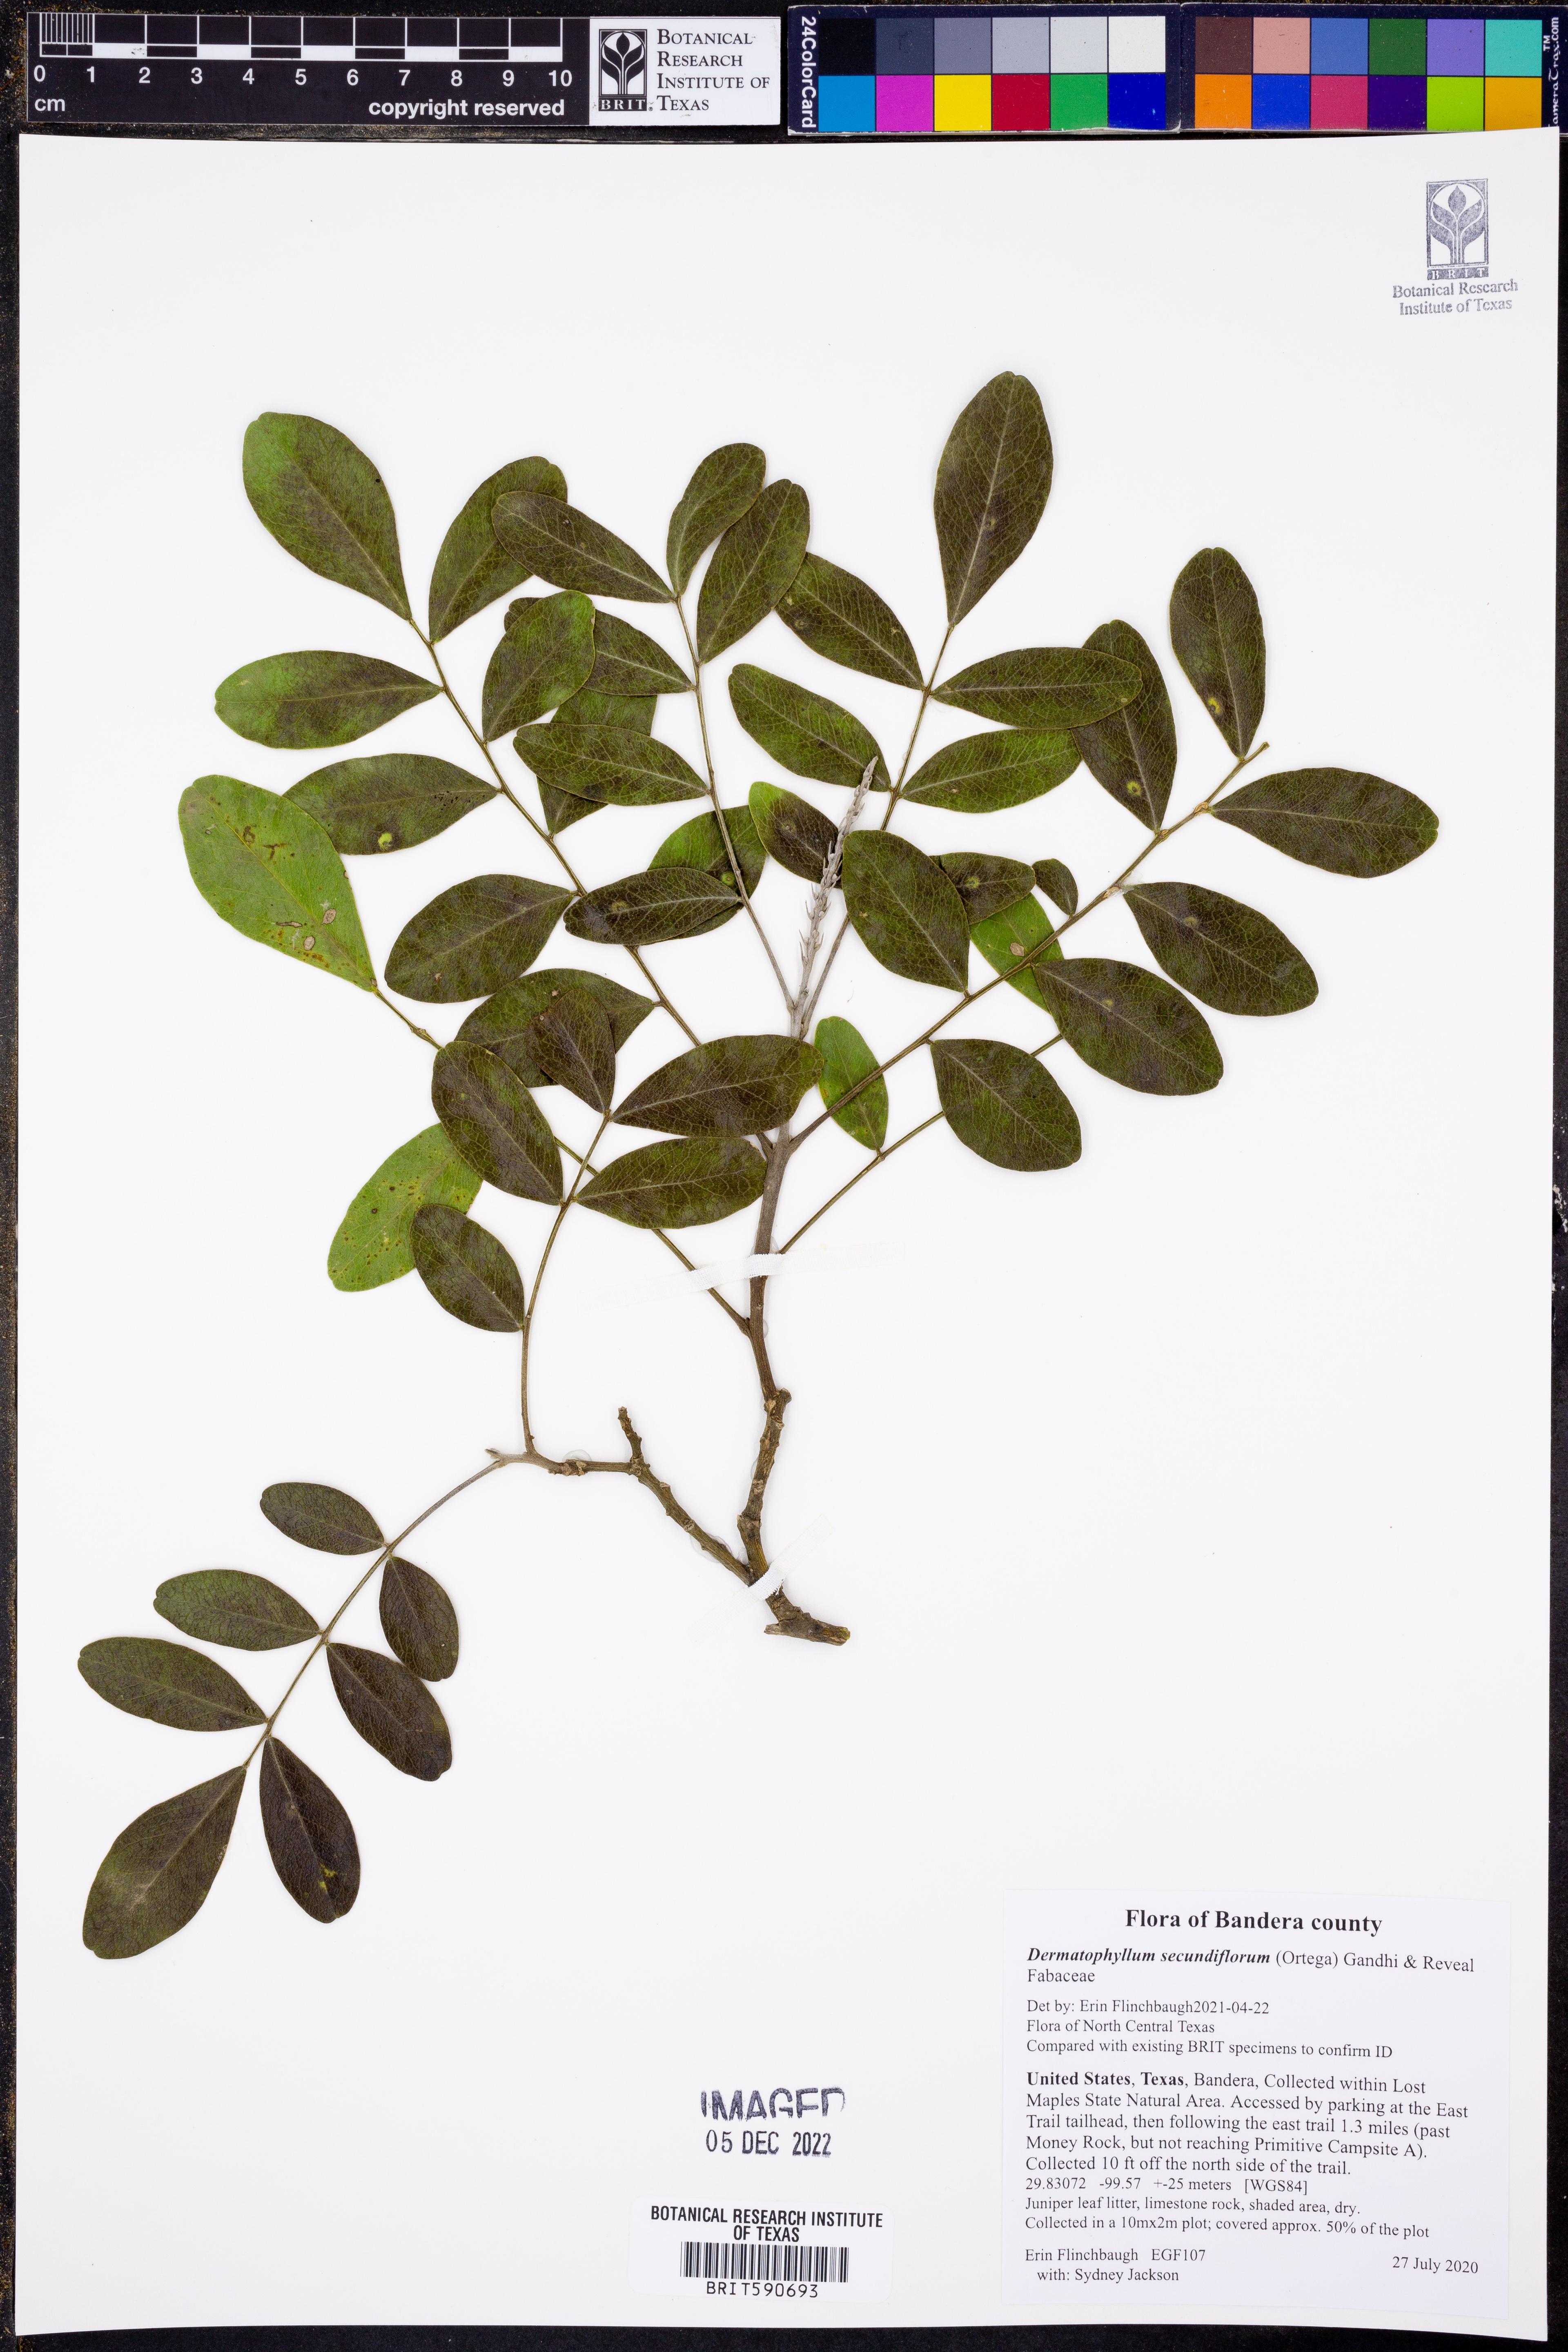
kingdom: Plantae
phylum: Tracheophyta
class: Magnoliopsida
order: Fabales
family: Fabaceae
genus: Dermatophyllum
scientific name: Dermatophyllum secundiflorum
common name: Texas-mountain-laurel
